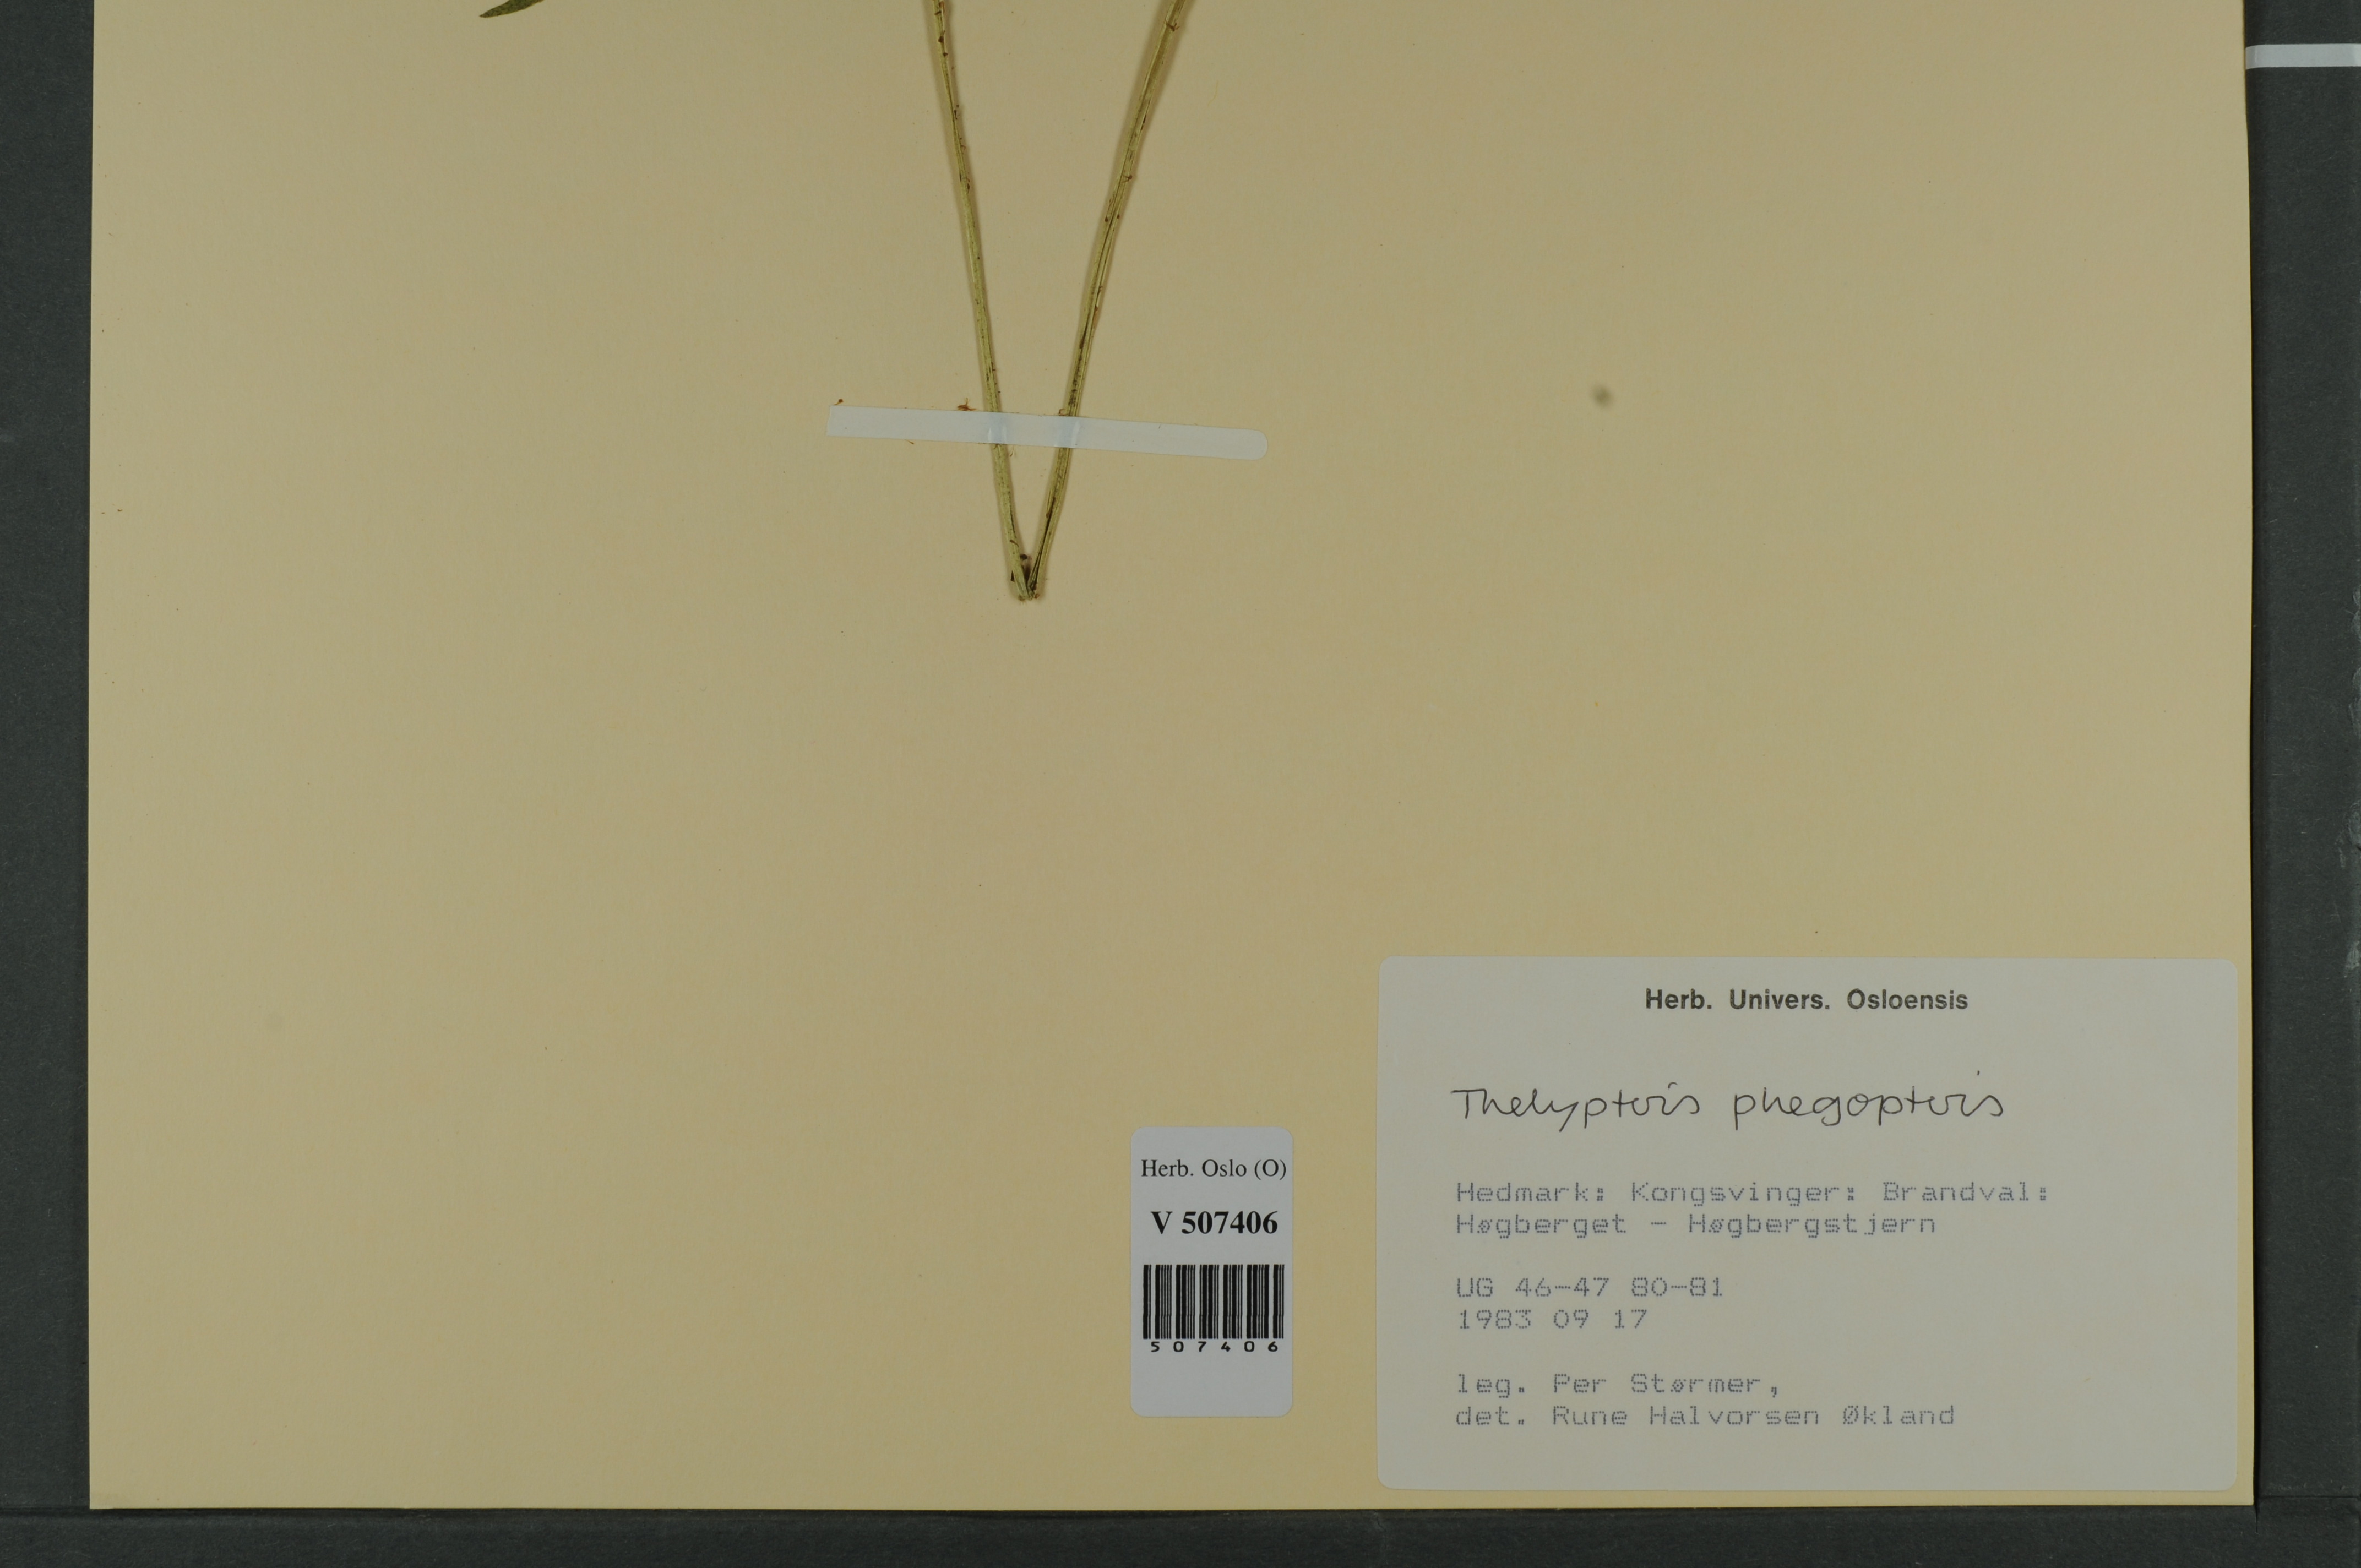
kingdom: Plantae
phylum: Tracheophyta
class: Polypodiopsida
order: Polypodiales
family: Thelypteridaceae
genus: Phegopteris
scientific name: Phegopteris connectilis
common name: Beech fern
